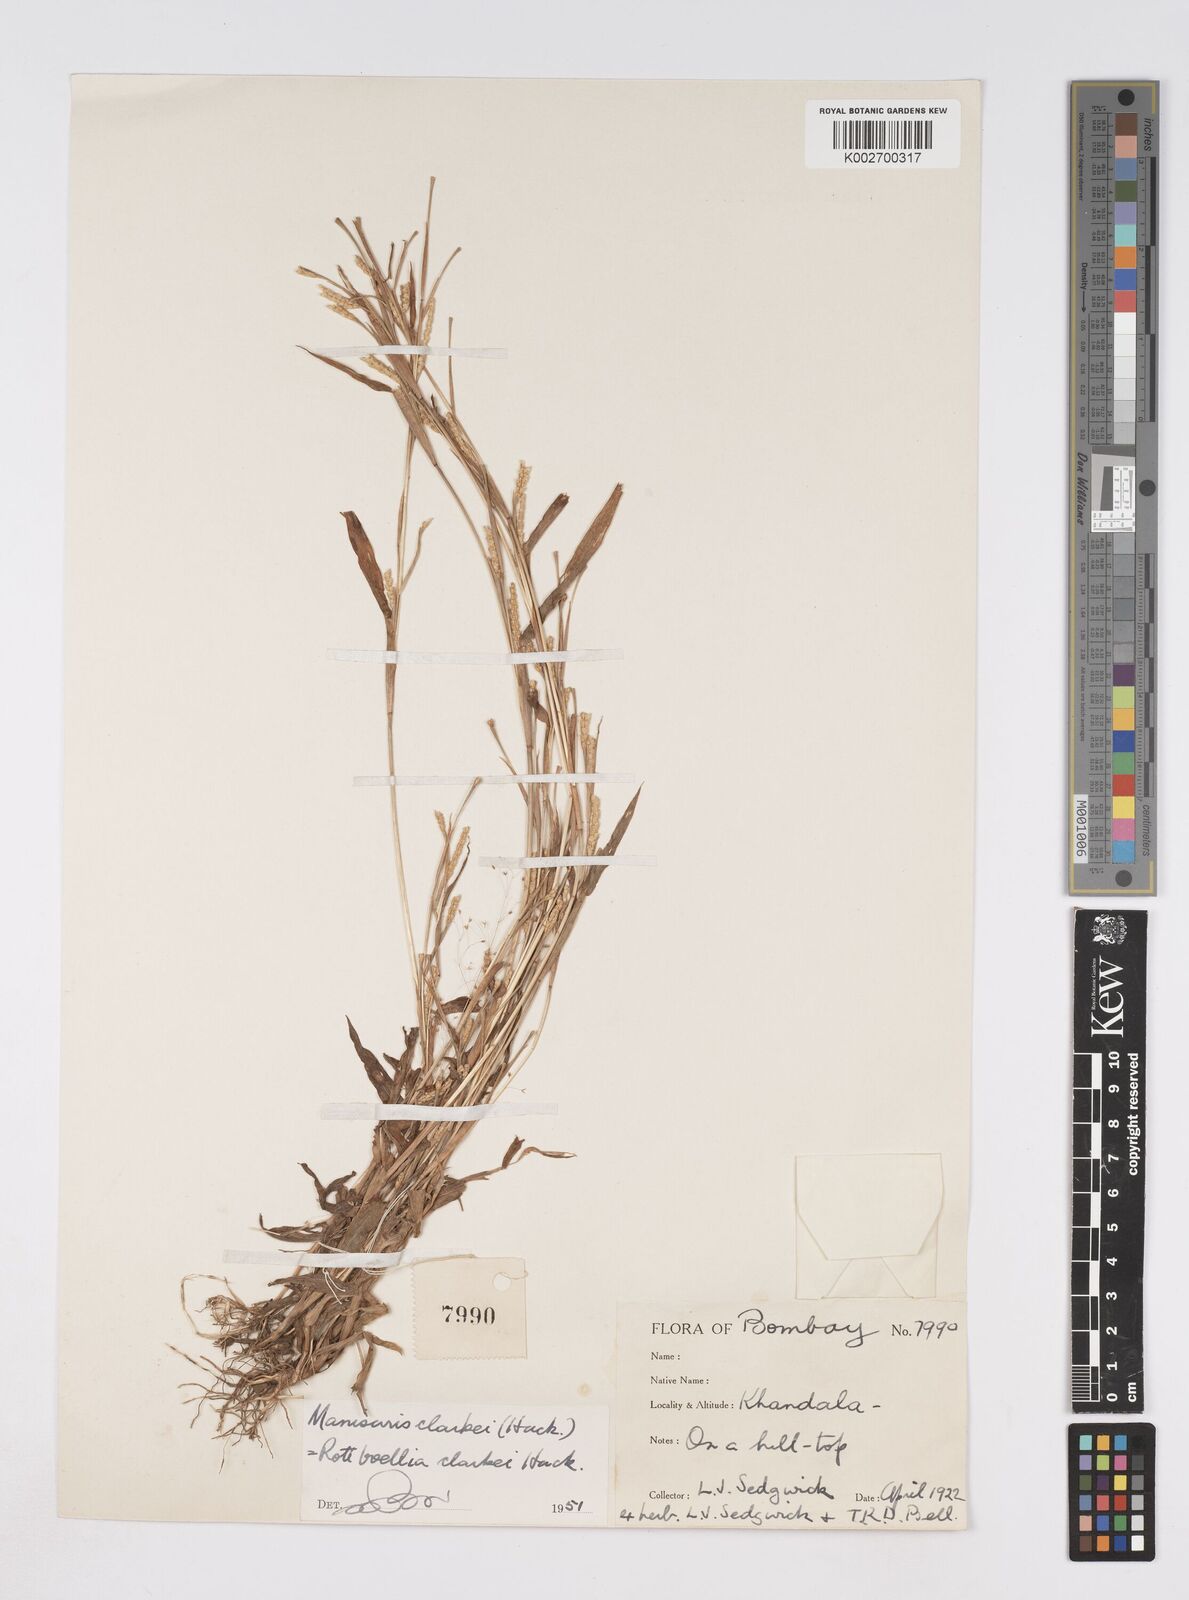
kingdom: Plantae
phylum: Tracheophyta
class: Liliopsida
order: Poales
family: Poaceae
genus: Rottboellia
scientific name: Rottboellia clarkei
